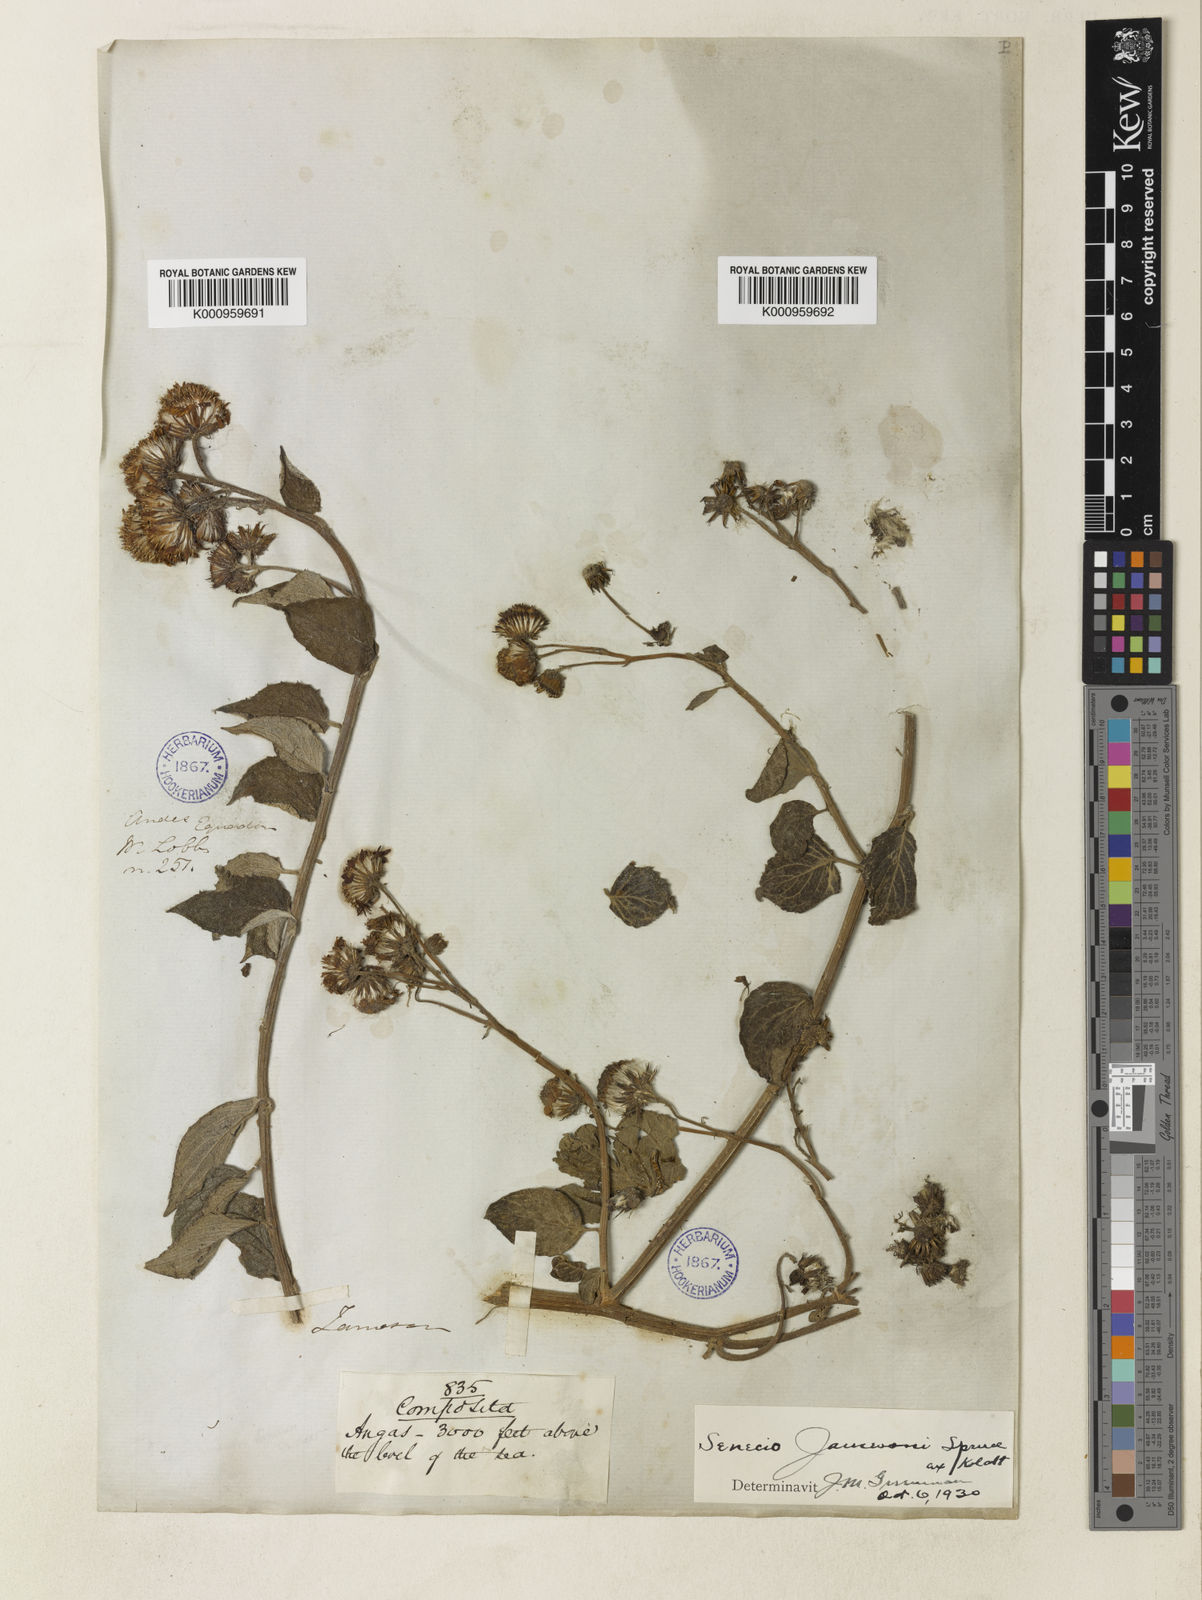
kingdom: Plantae
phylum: Tracheophyta
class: Magnoliopsida
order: Asterales
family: Asteraceae
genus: Pseudogynoxys
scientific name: Pseudogynoxys
